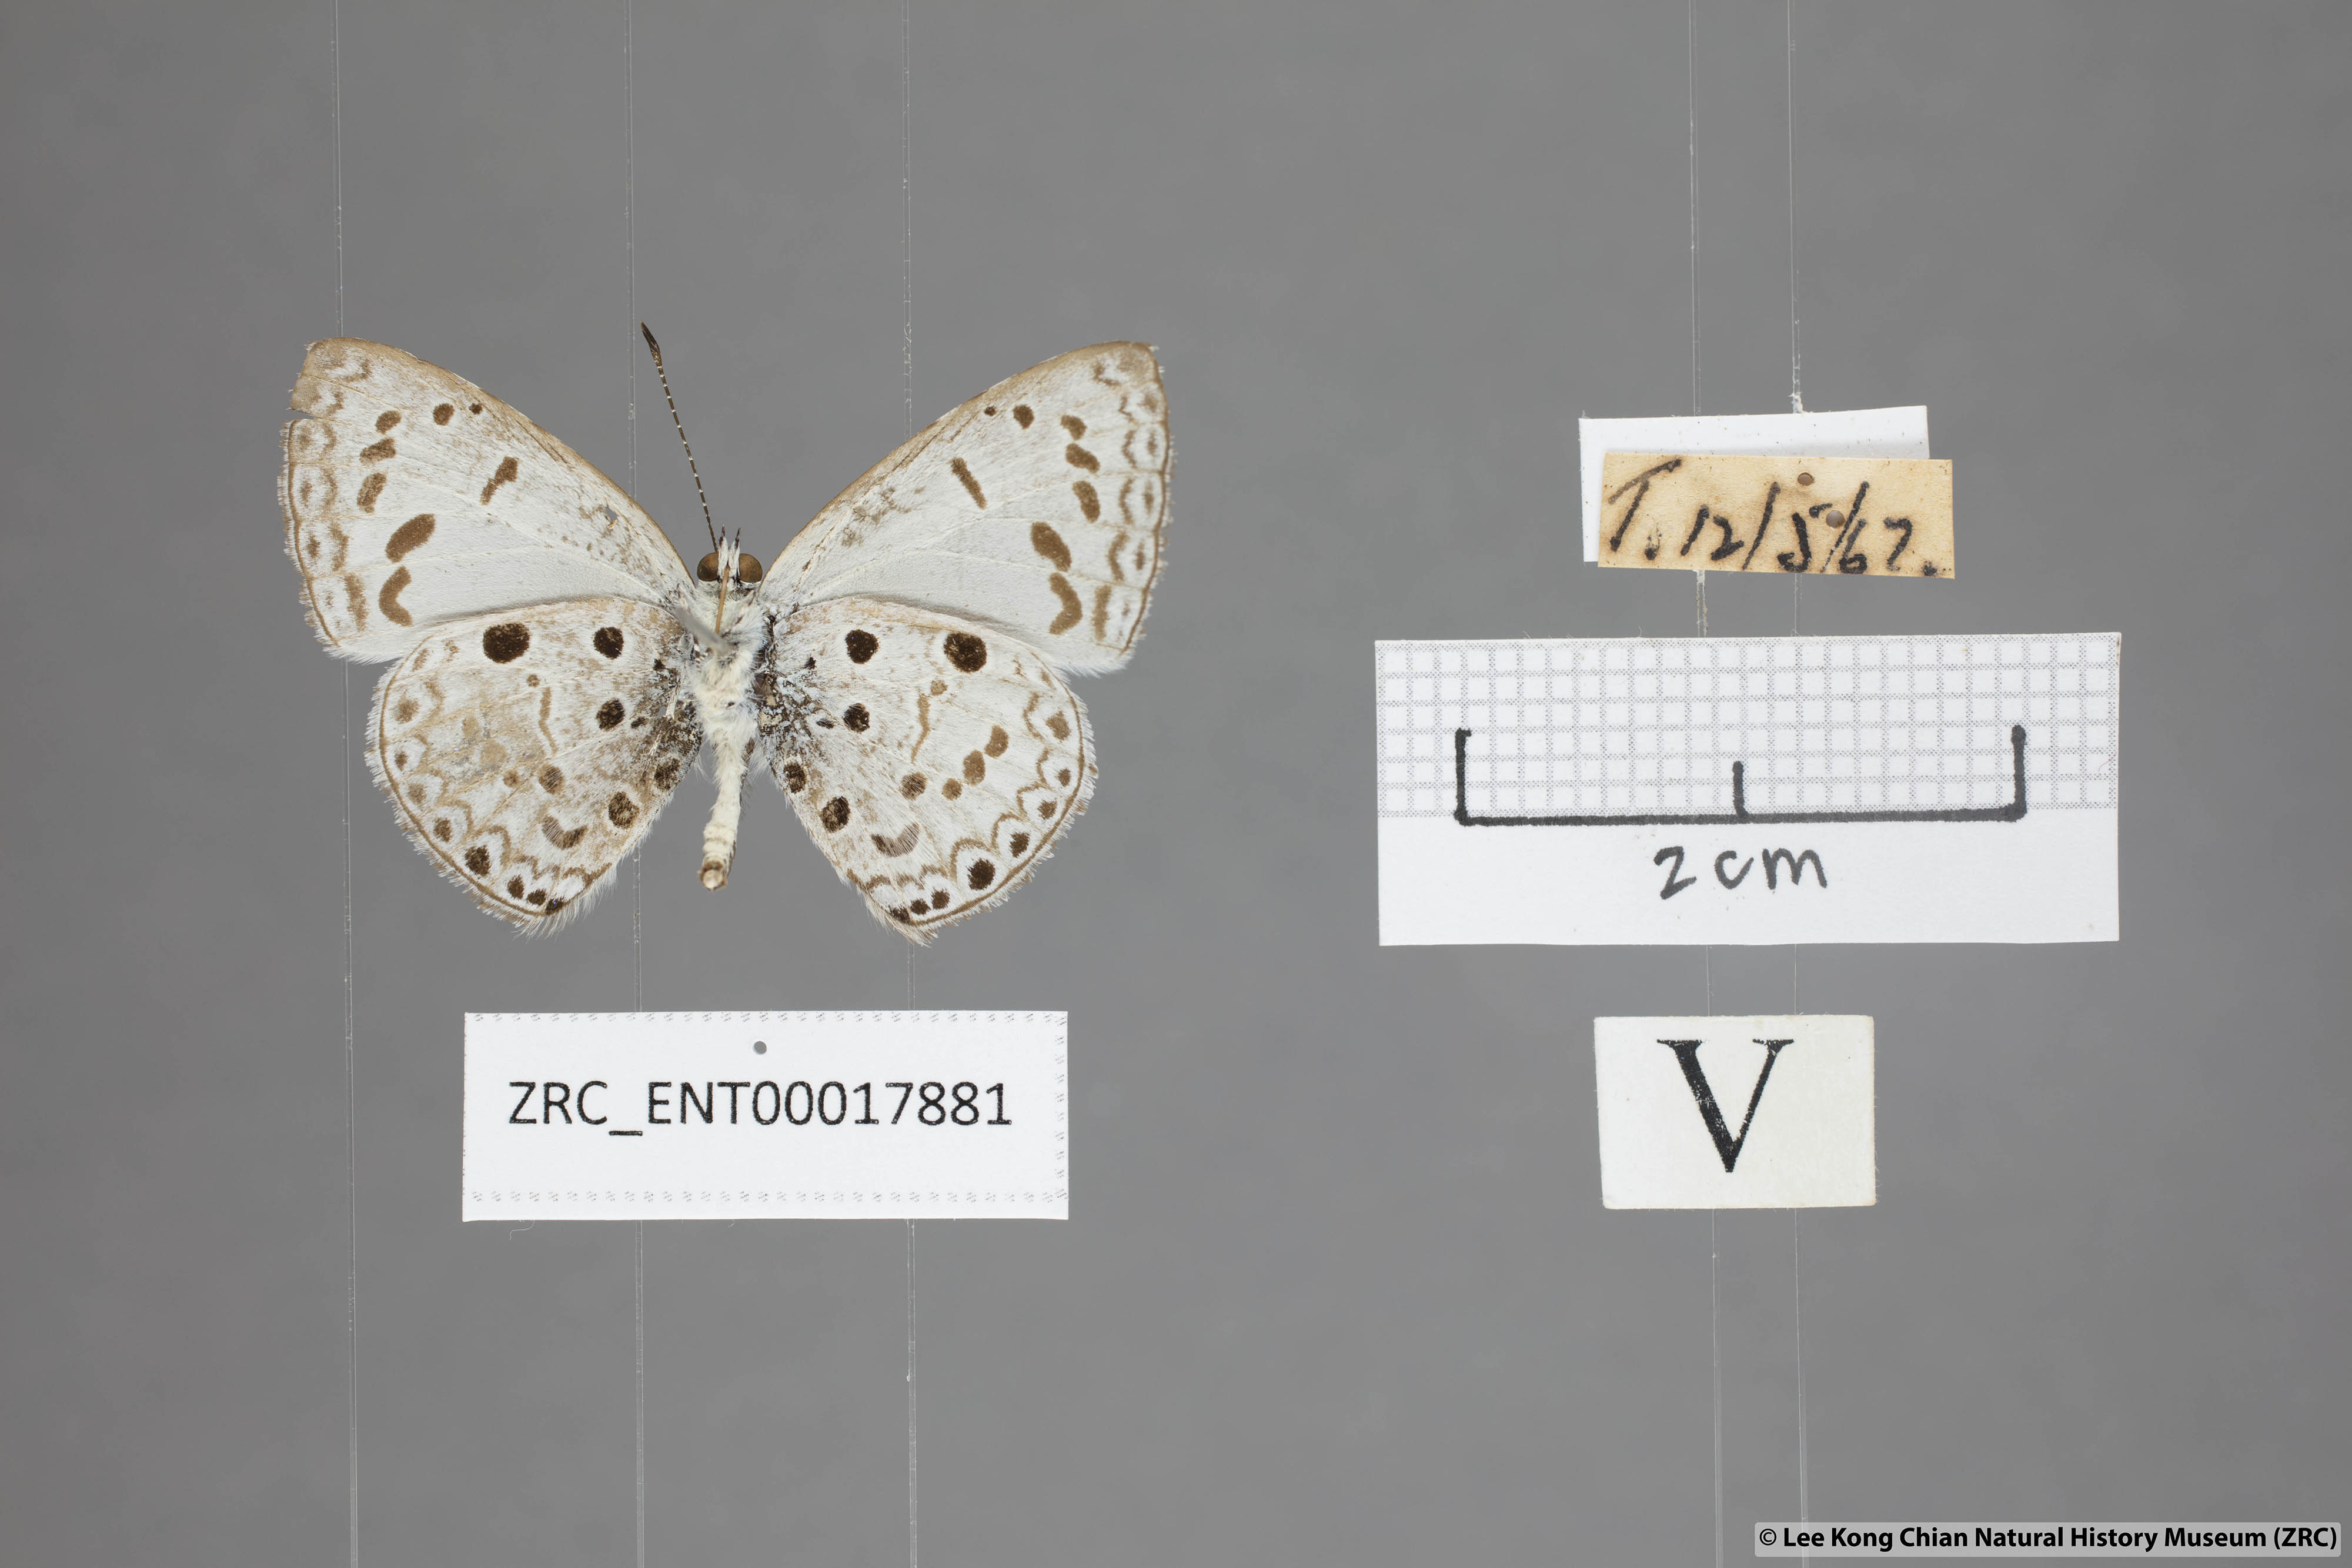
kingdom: Animalia
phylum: Arthropoda
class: Insecta
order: Lepidoptera
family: Lycaenidae
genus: Acytolepis
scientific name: Acytolepis puspa
